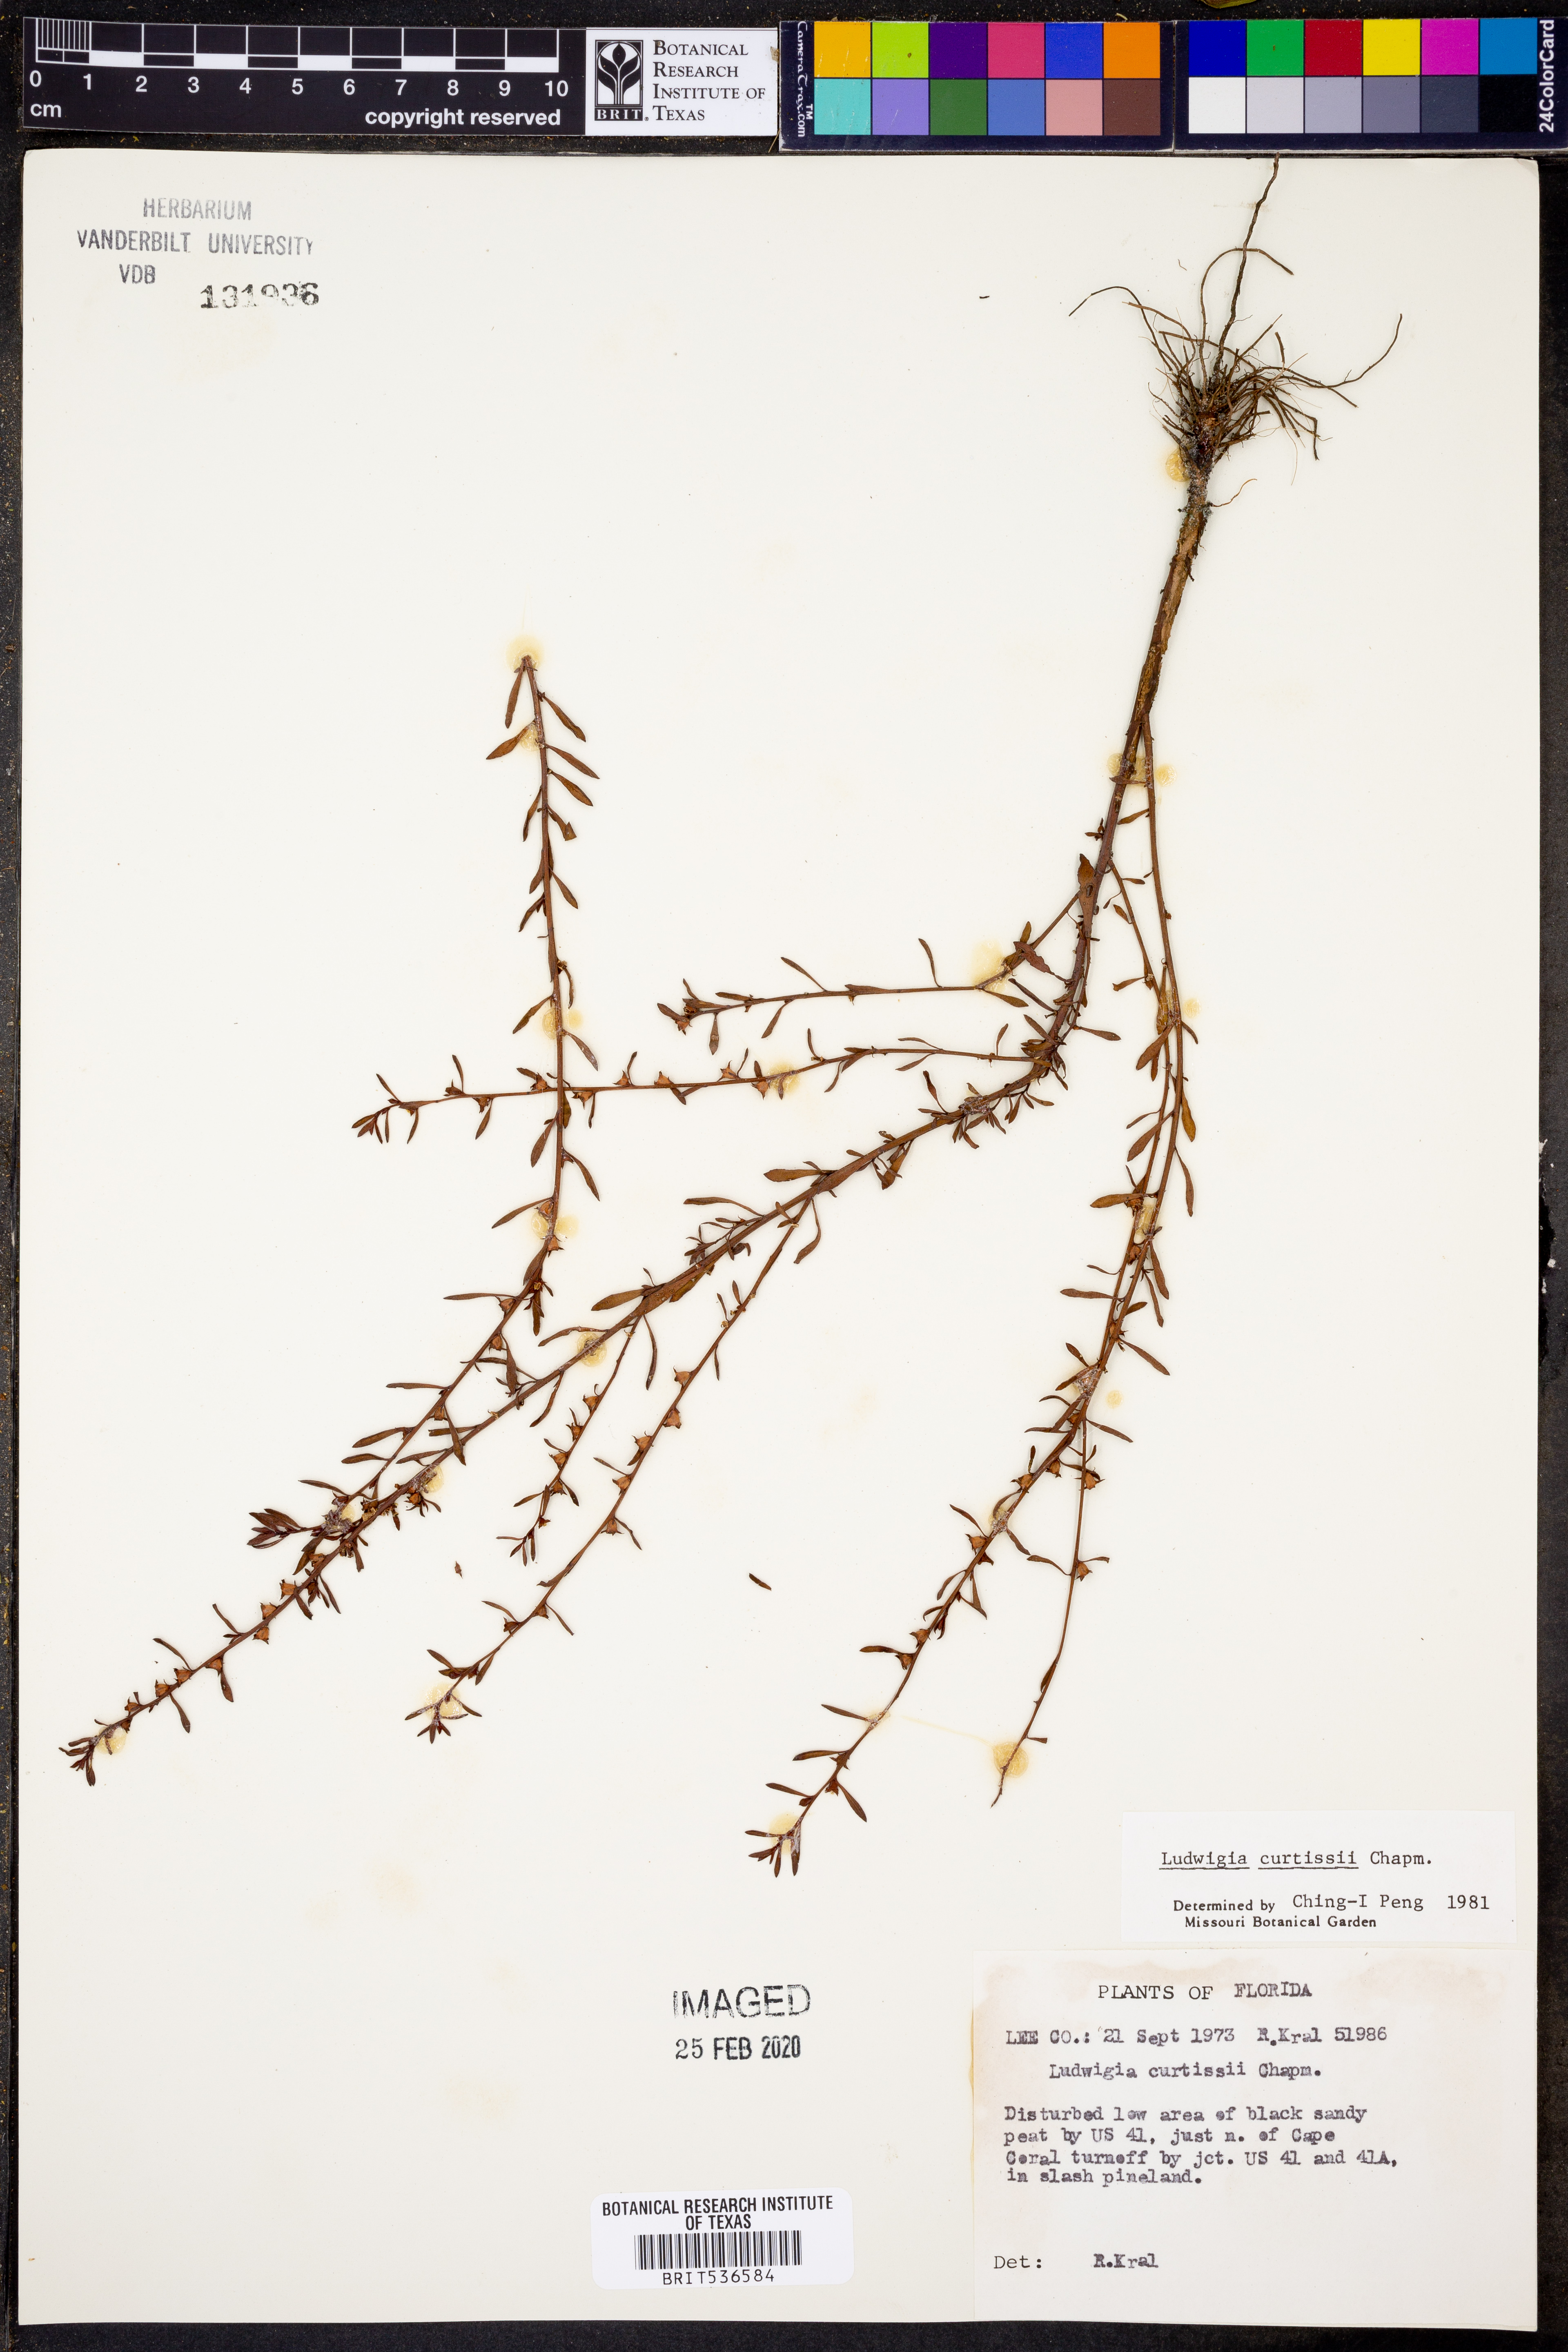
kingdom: Plantae
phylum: Tracheophyta
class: Magnoliopsida
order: Myrtales
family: Onagraceae
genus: Ludwigia
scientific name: Ludwigia curtissii
